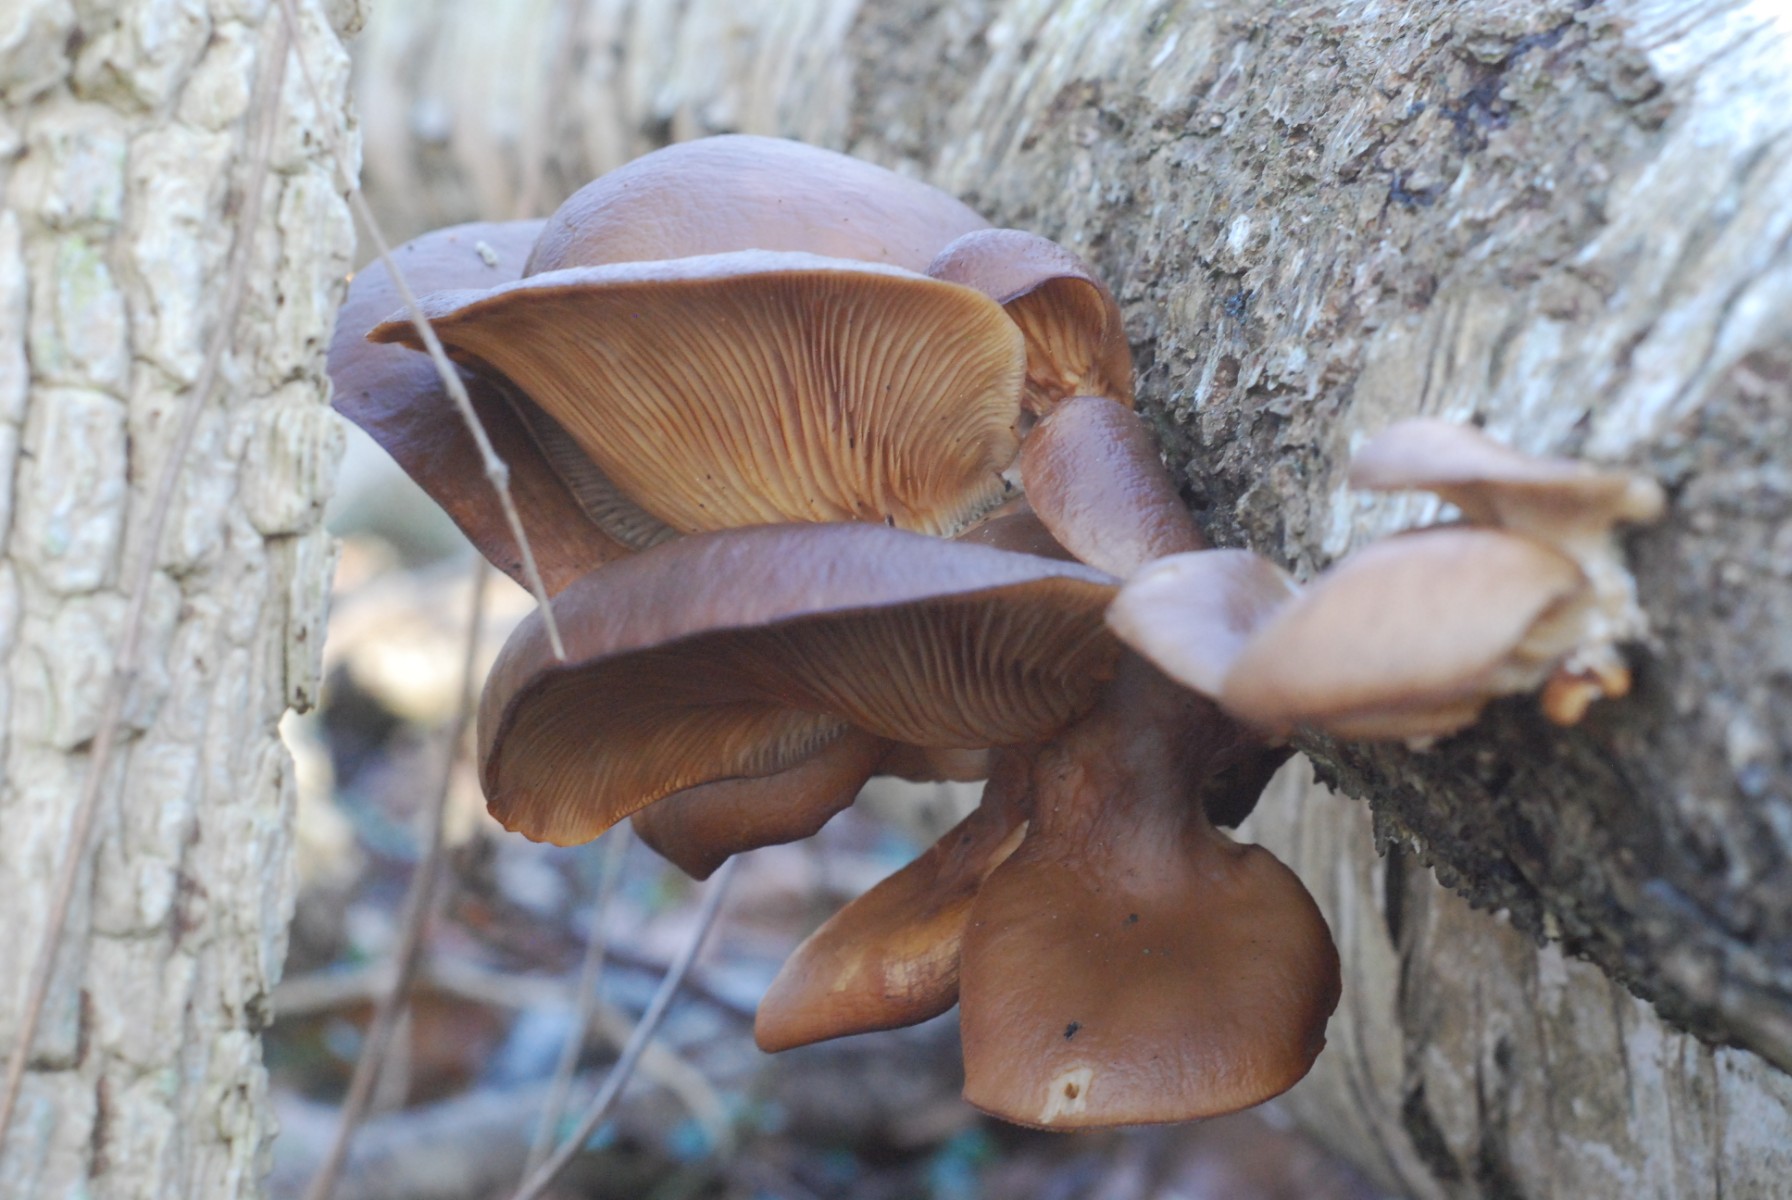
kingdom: Fungi
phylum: Basidiomycota
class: Agaricomycetes
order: Agaricales
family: Pleurotaceae
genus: Pleurotus
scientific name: Pleurotus ostreatus
